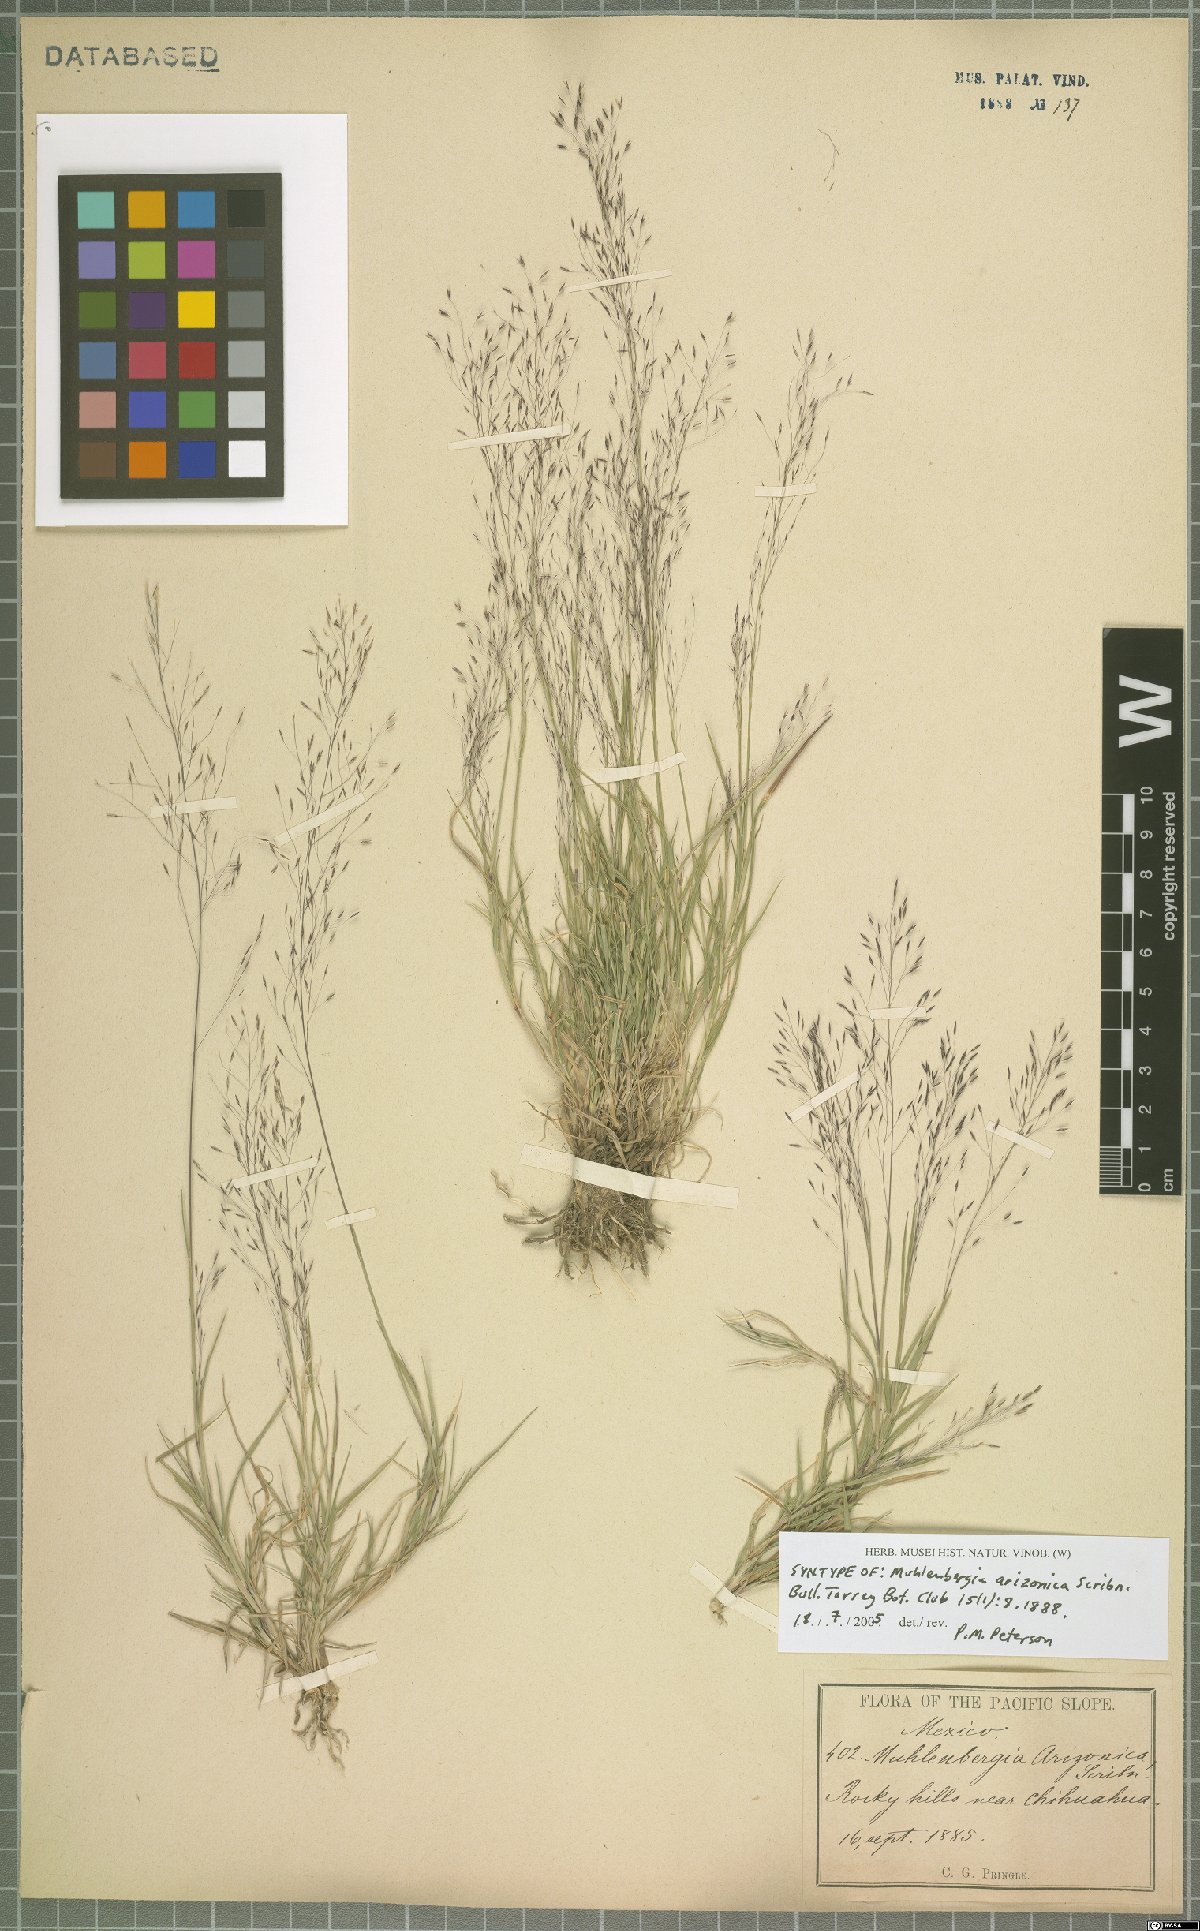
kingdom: Plantae
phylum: Tracheophyta
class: Liliopsida
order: Poales
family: Poaceae
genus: Muhlenbergia
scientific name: Muhlenbergia arizonica
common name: Arizona muhly
